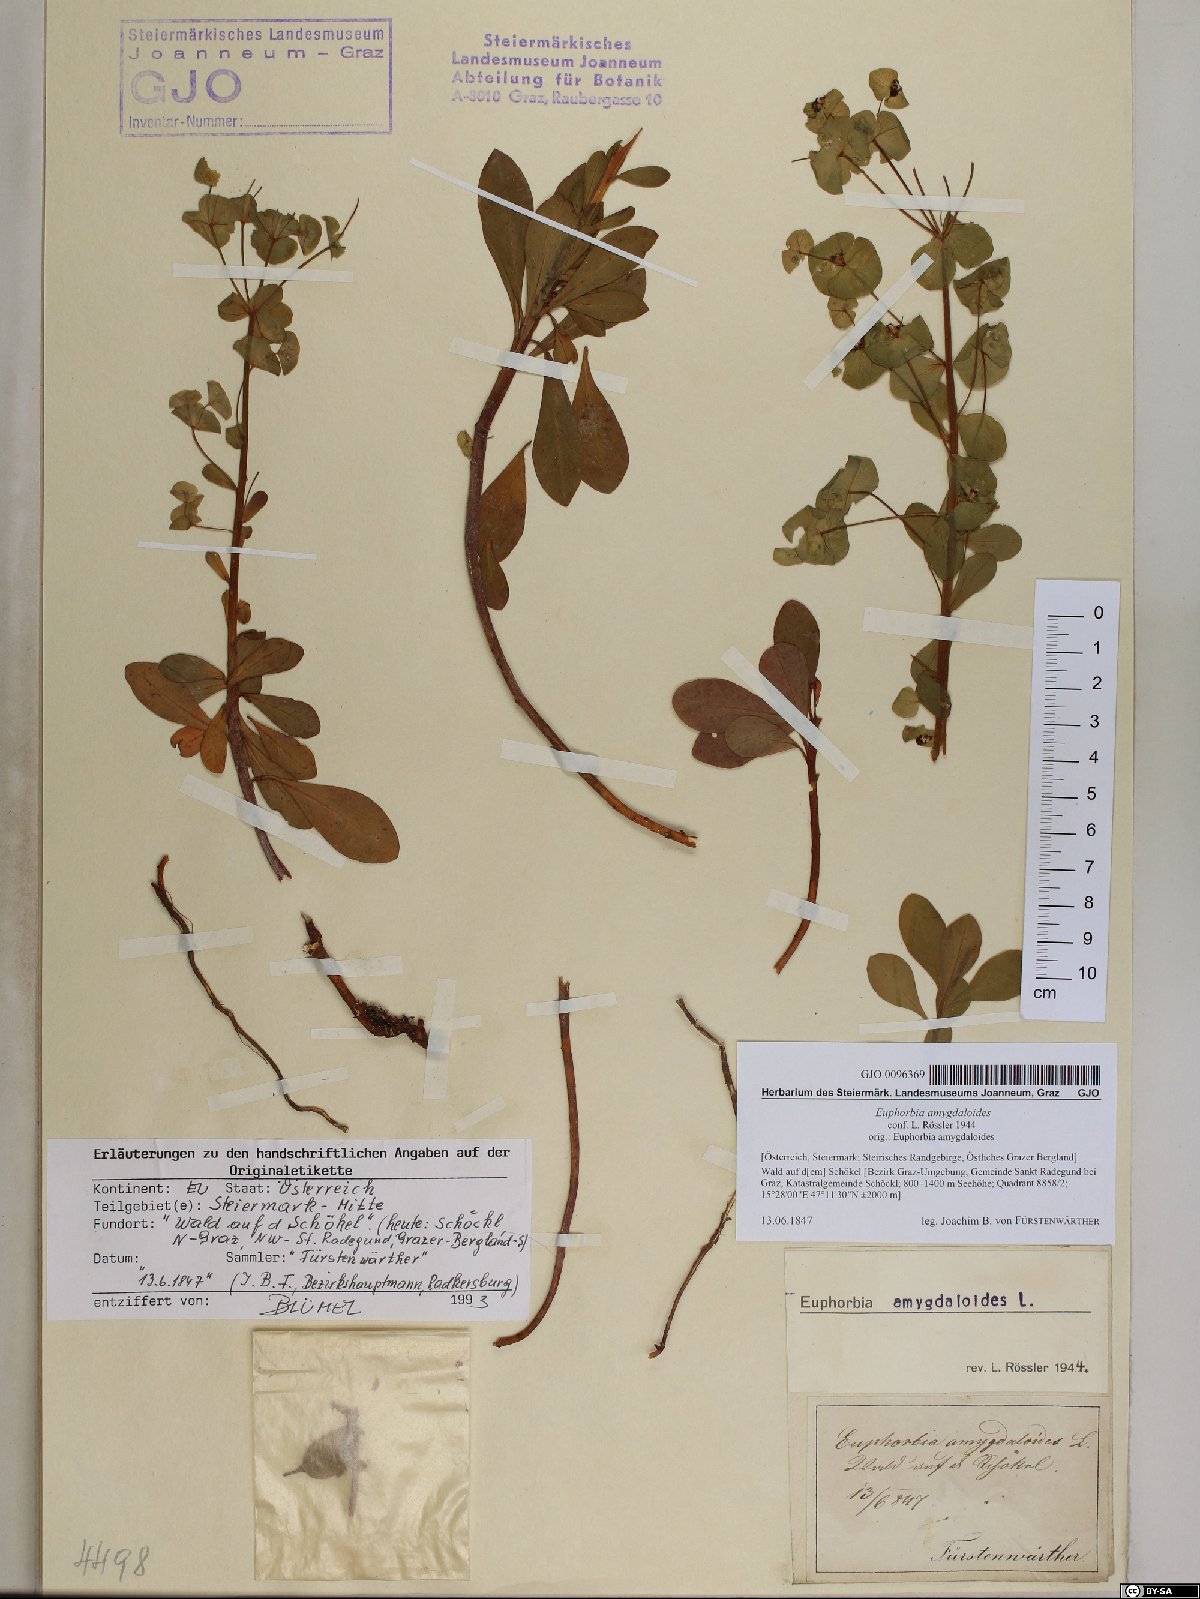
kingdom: Plantae
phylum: Tracheophyta
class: Magnoliopsida
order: Malpighiales
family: Euphorbiaceae
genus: Euphorbia
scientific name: Euphorbia amygdaloides
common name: Wood spurge
